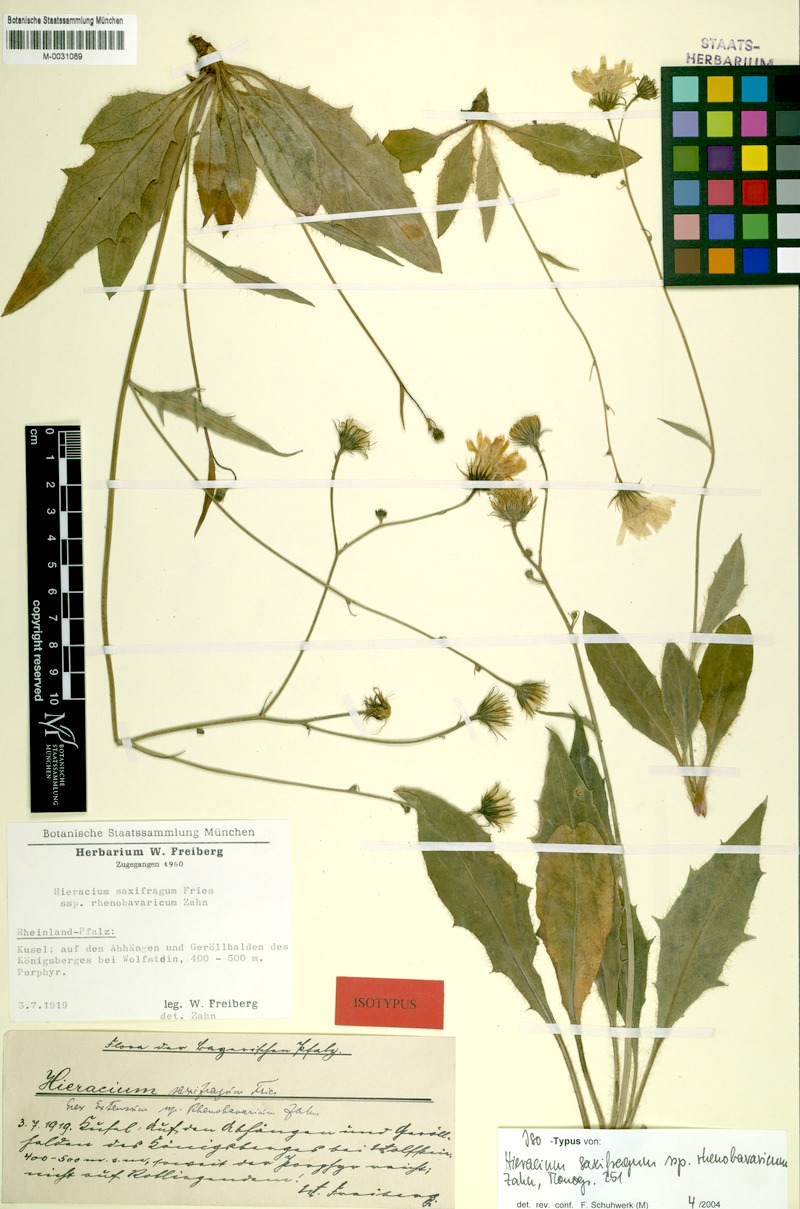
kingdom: Plantae
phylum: Tracheophyta
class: Magnoliopsida
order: Asterales
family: Asteraceae
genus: Hieracium
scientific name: Hieracium saxifragum
